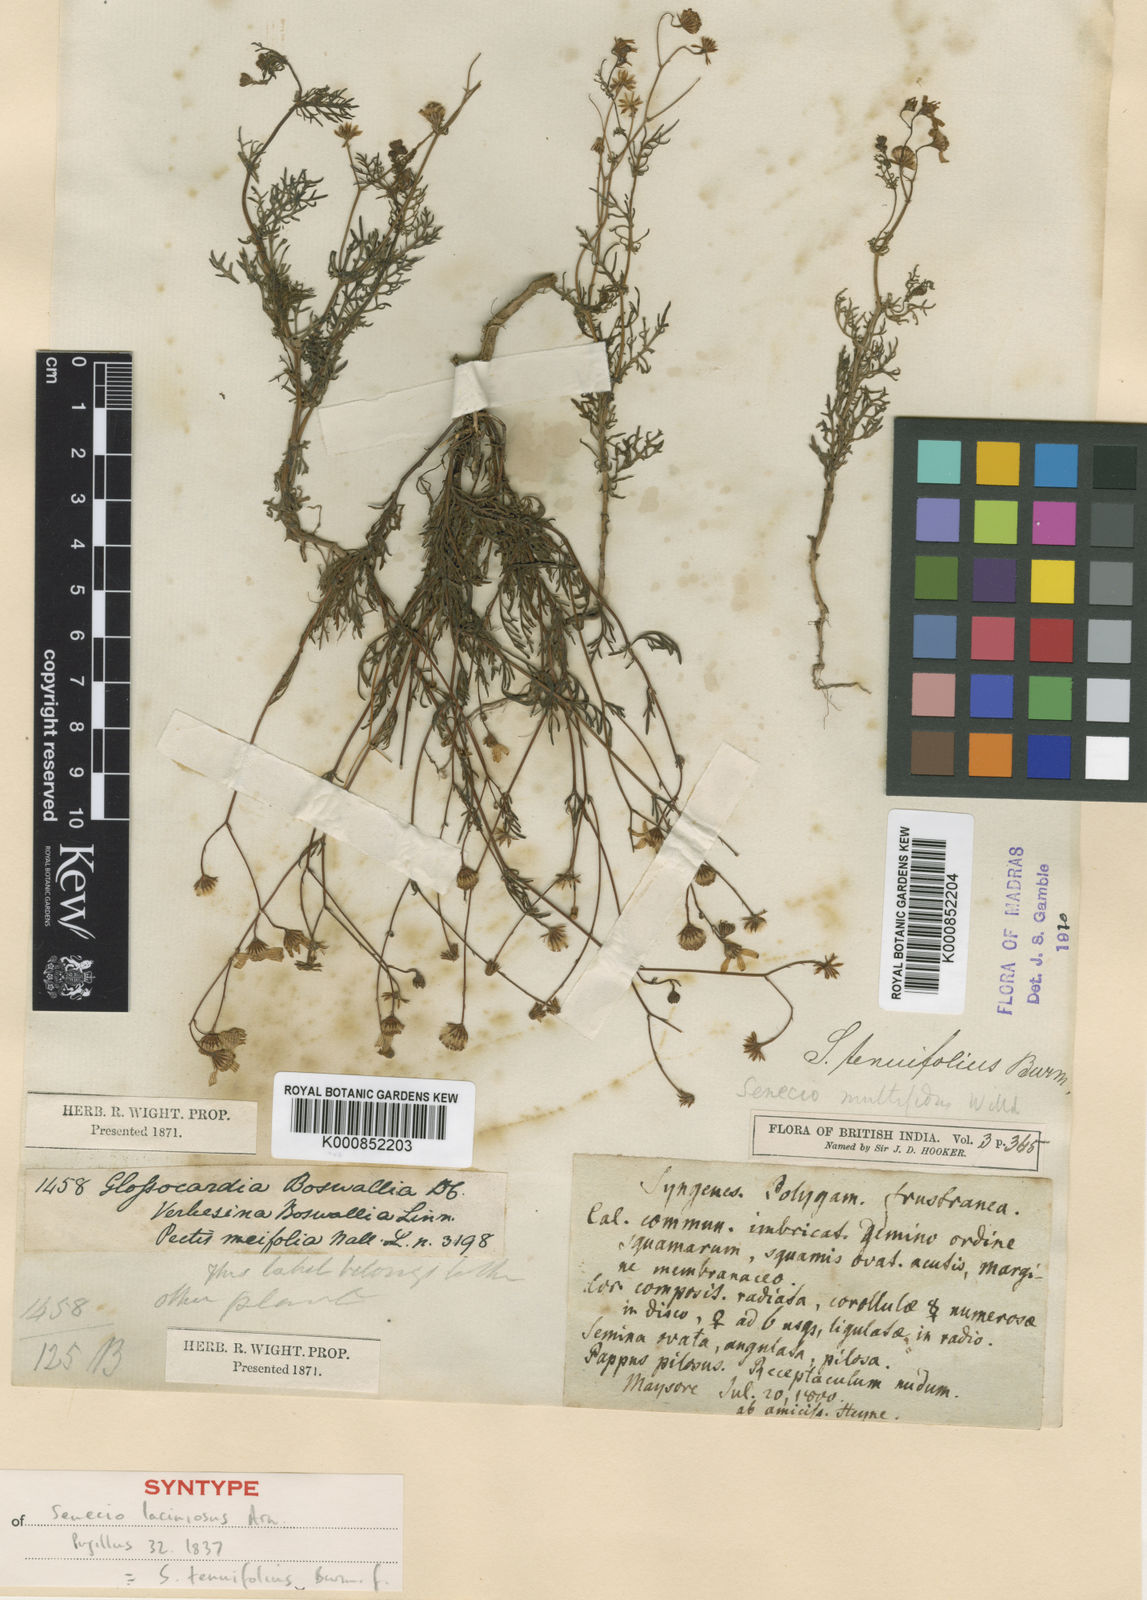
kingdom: Plantae
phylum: Tracheophyta
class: Magnoliopsida
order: Asterales
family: Asteraceae
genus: Senecio
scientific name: Senecio tenuifolius
